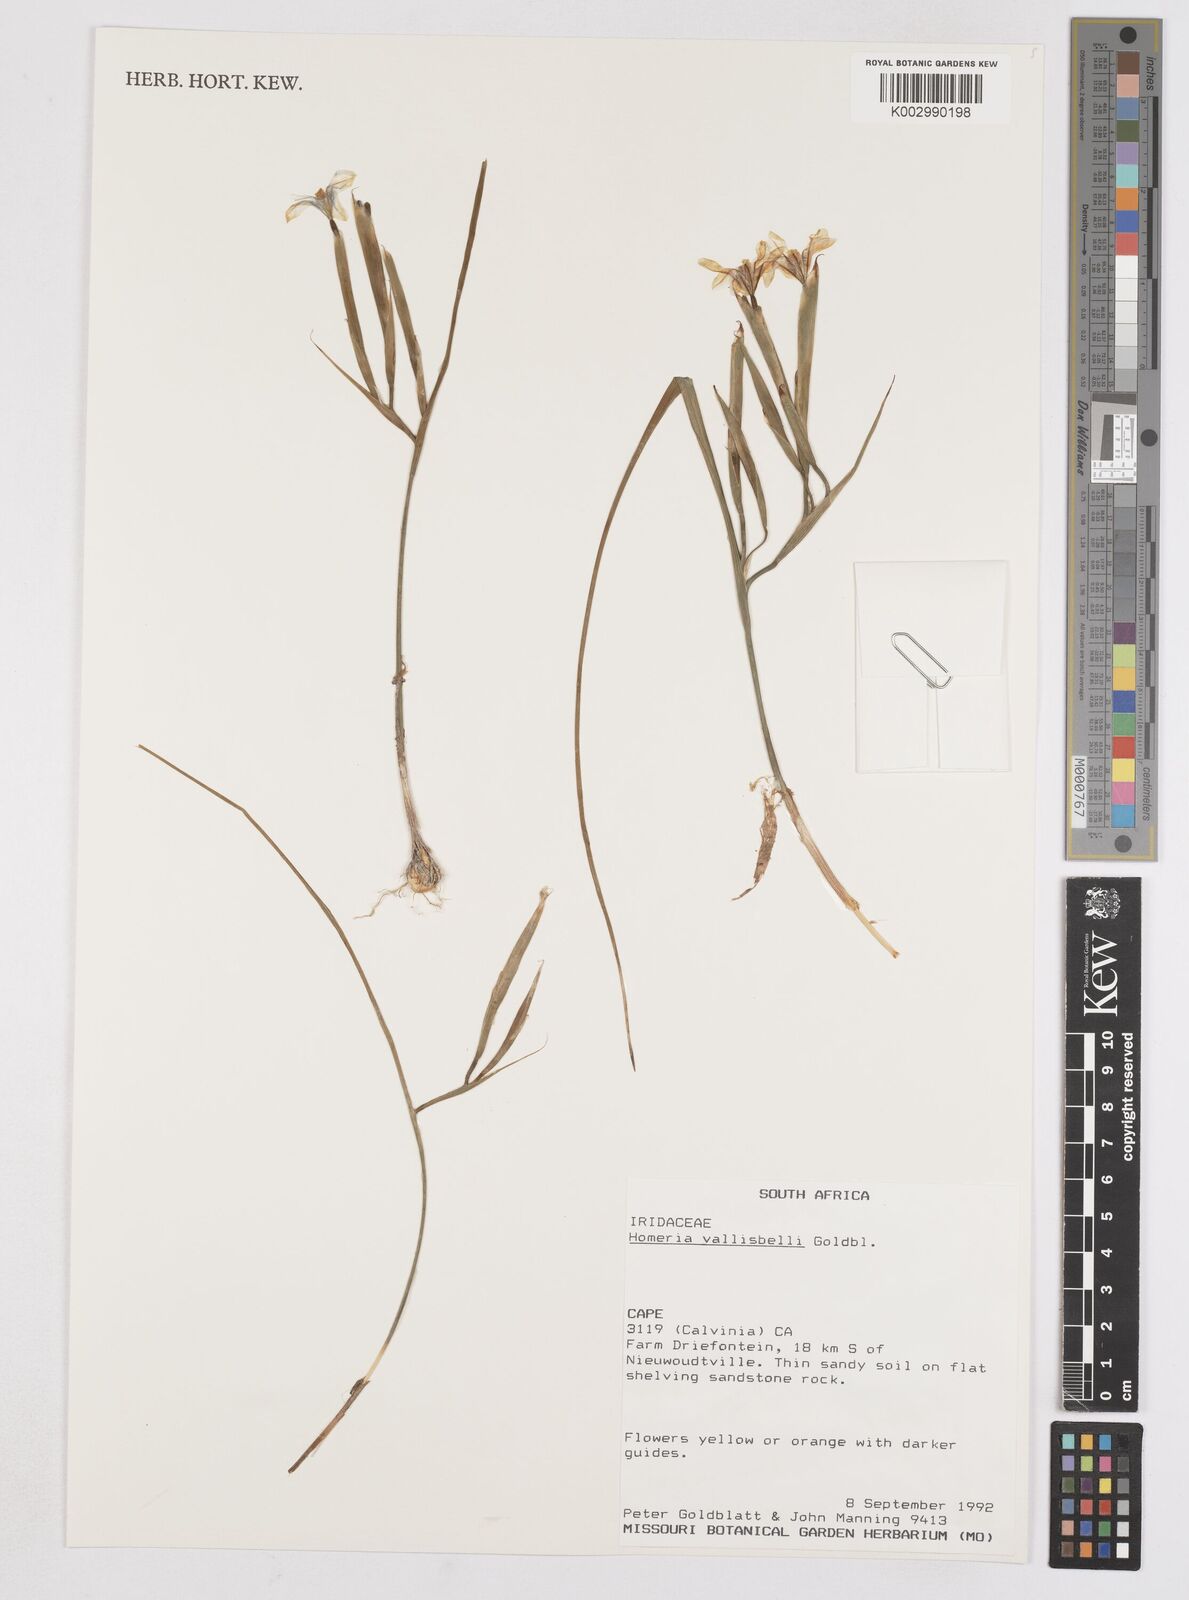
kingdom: Plantae
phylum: Tracheophyta
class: Liliopsida
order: Asparagales
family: Iridaceae
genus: Moraea
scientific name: Moraea vallisavium
